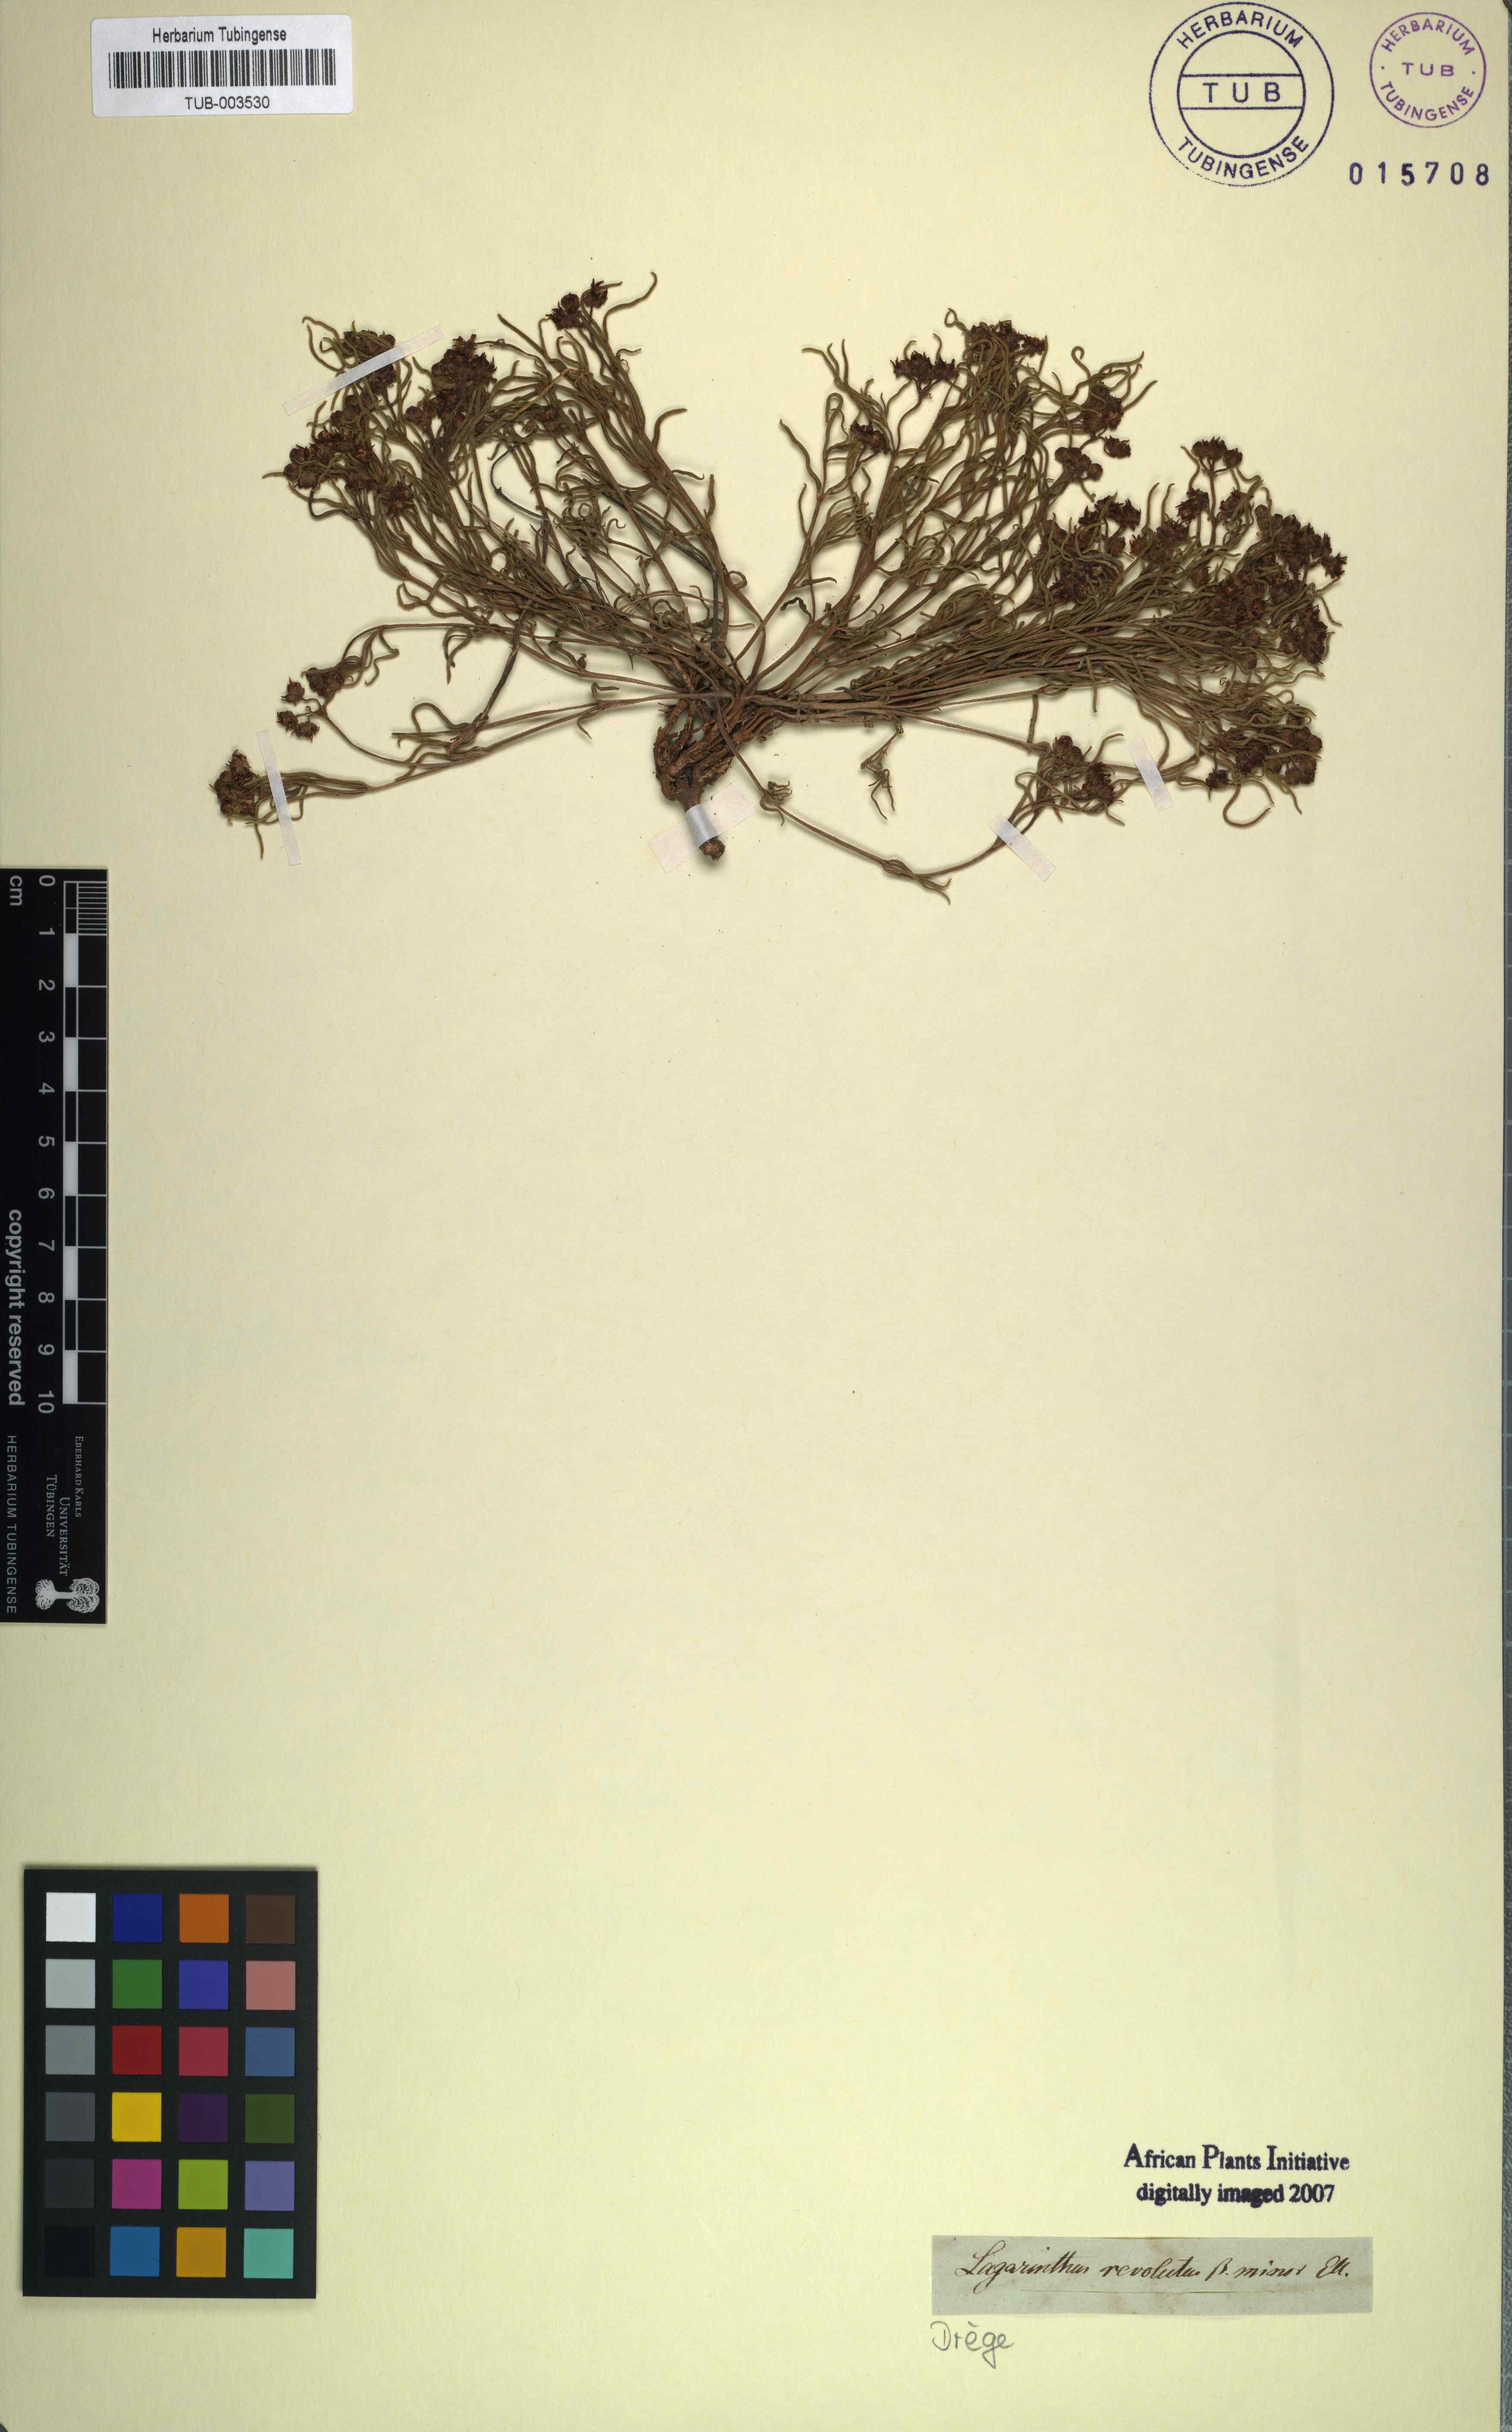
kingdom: Plantae
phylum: Tracheophyta
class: Magnoliopsida
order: Gentianales
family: Apocynaceae
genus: Asclepias
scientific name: Asclepias stellifera
